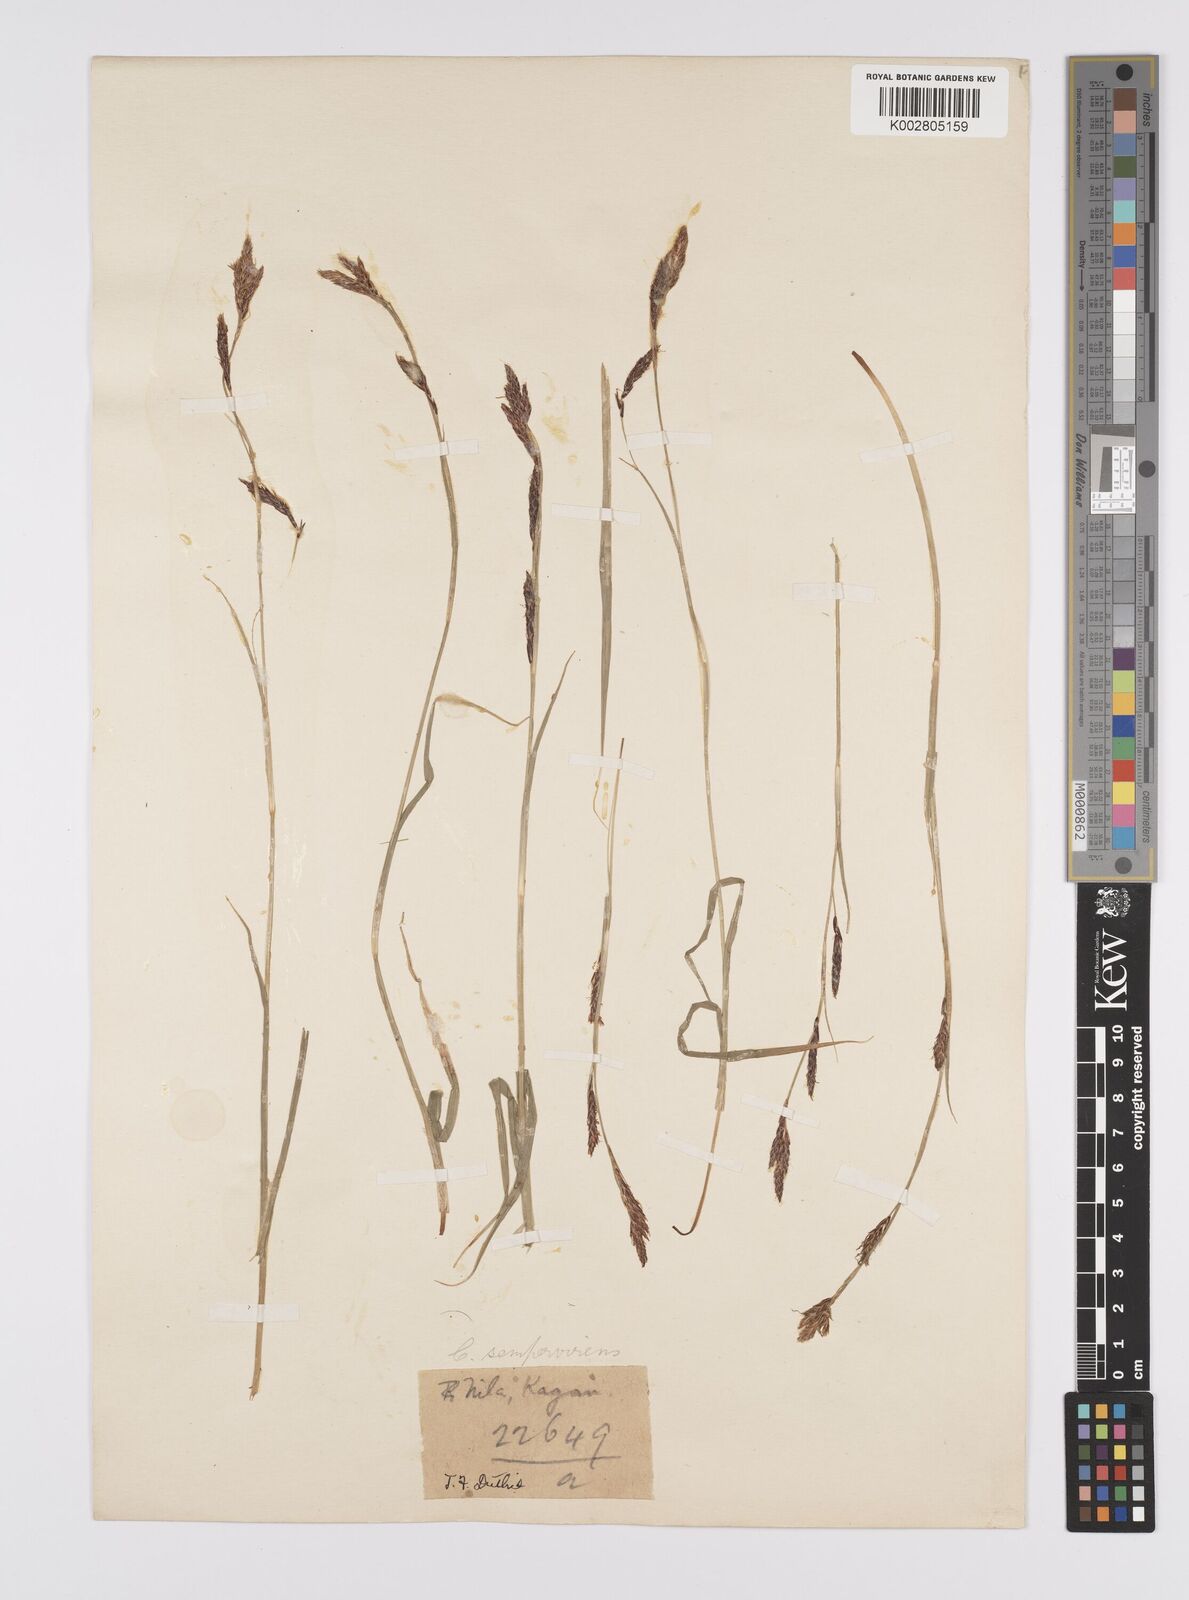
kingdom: Plantae
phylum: Tracheophyta
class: Liliopsida
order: Poales
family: Cyperaceae
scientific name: Cyperaceae
